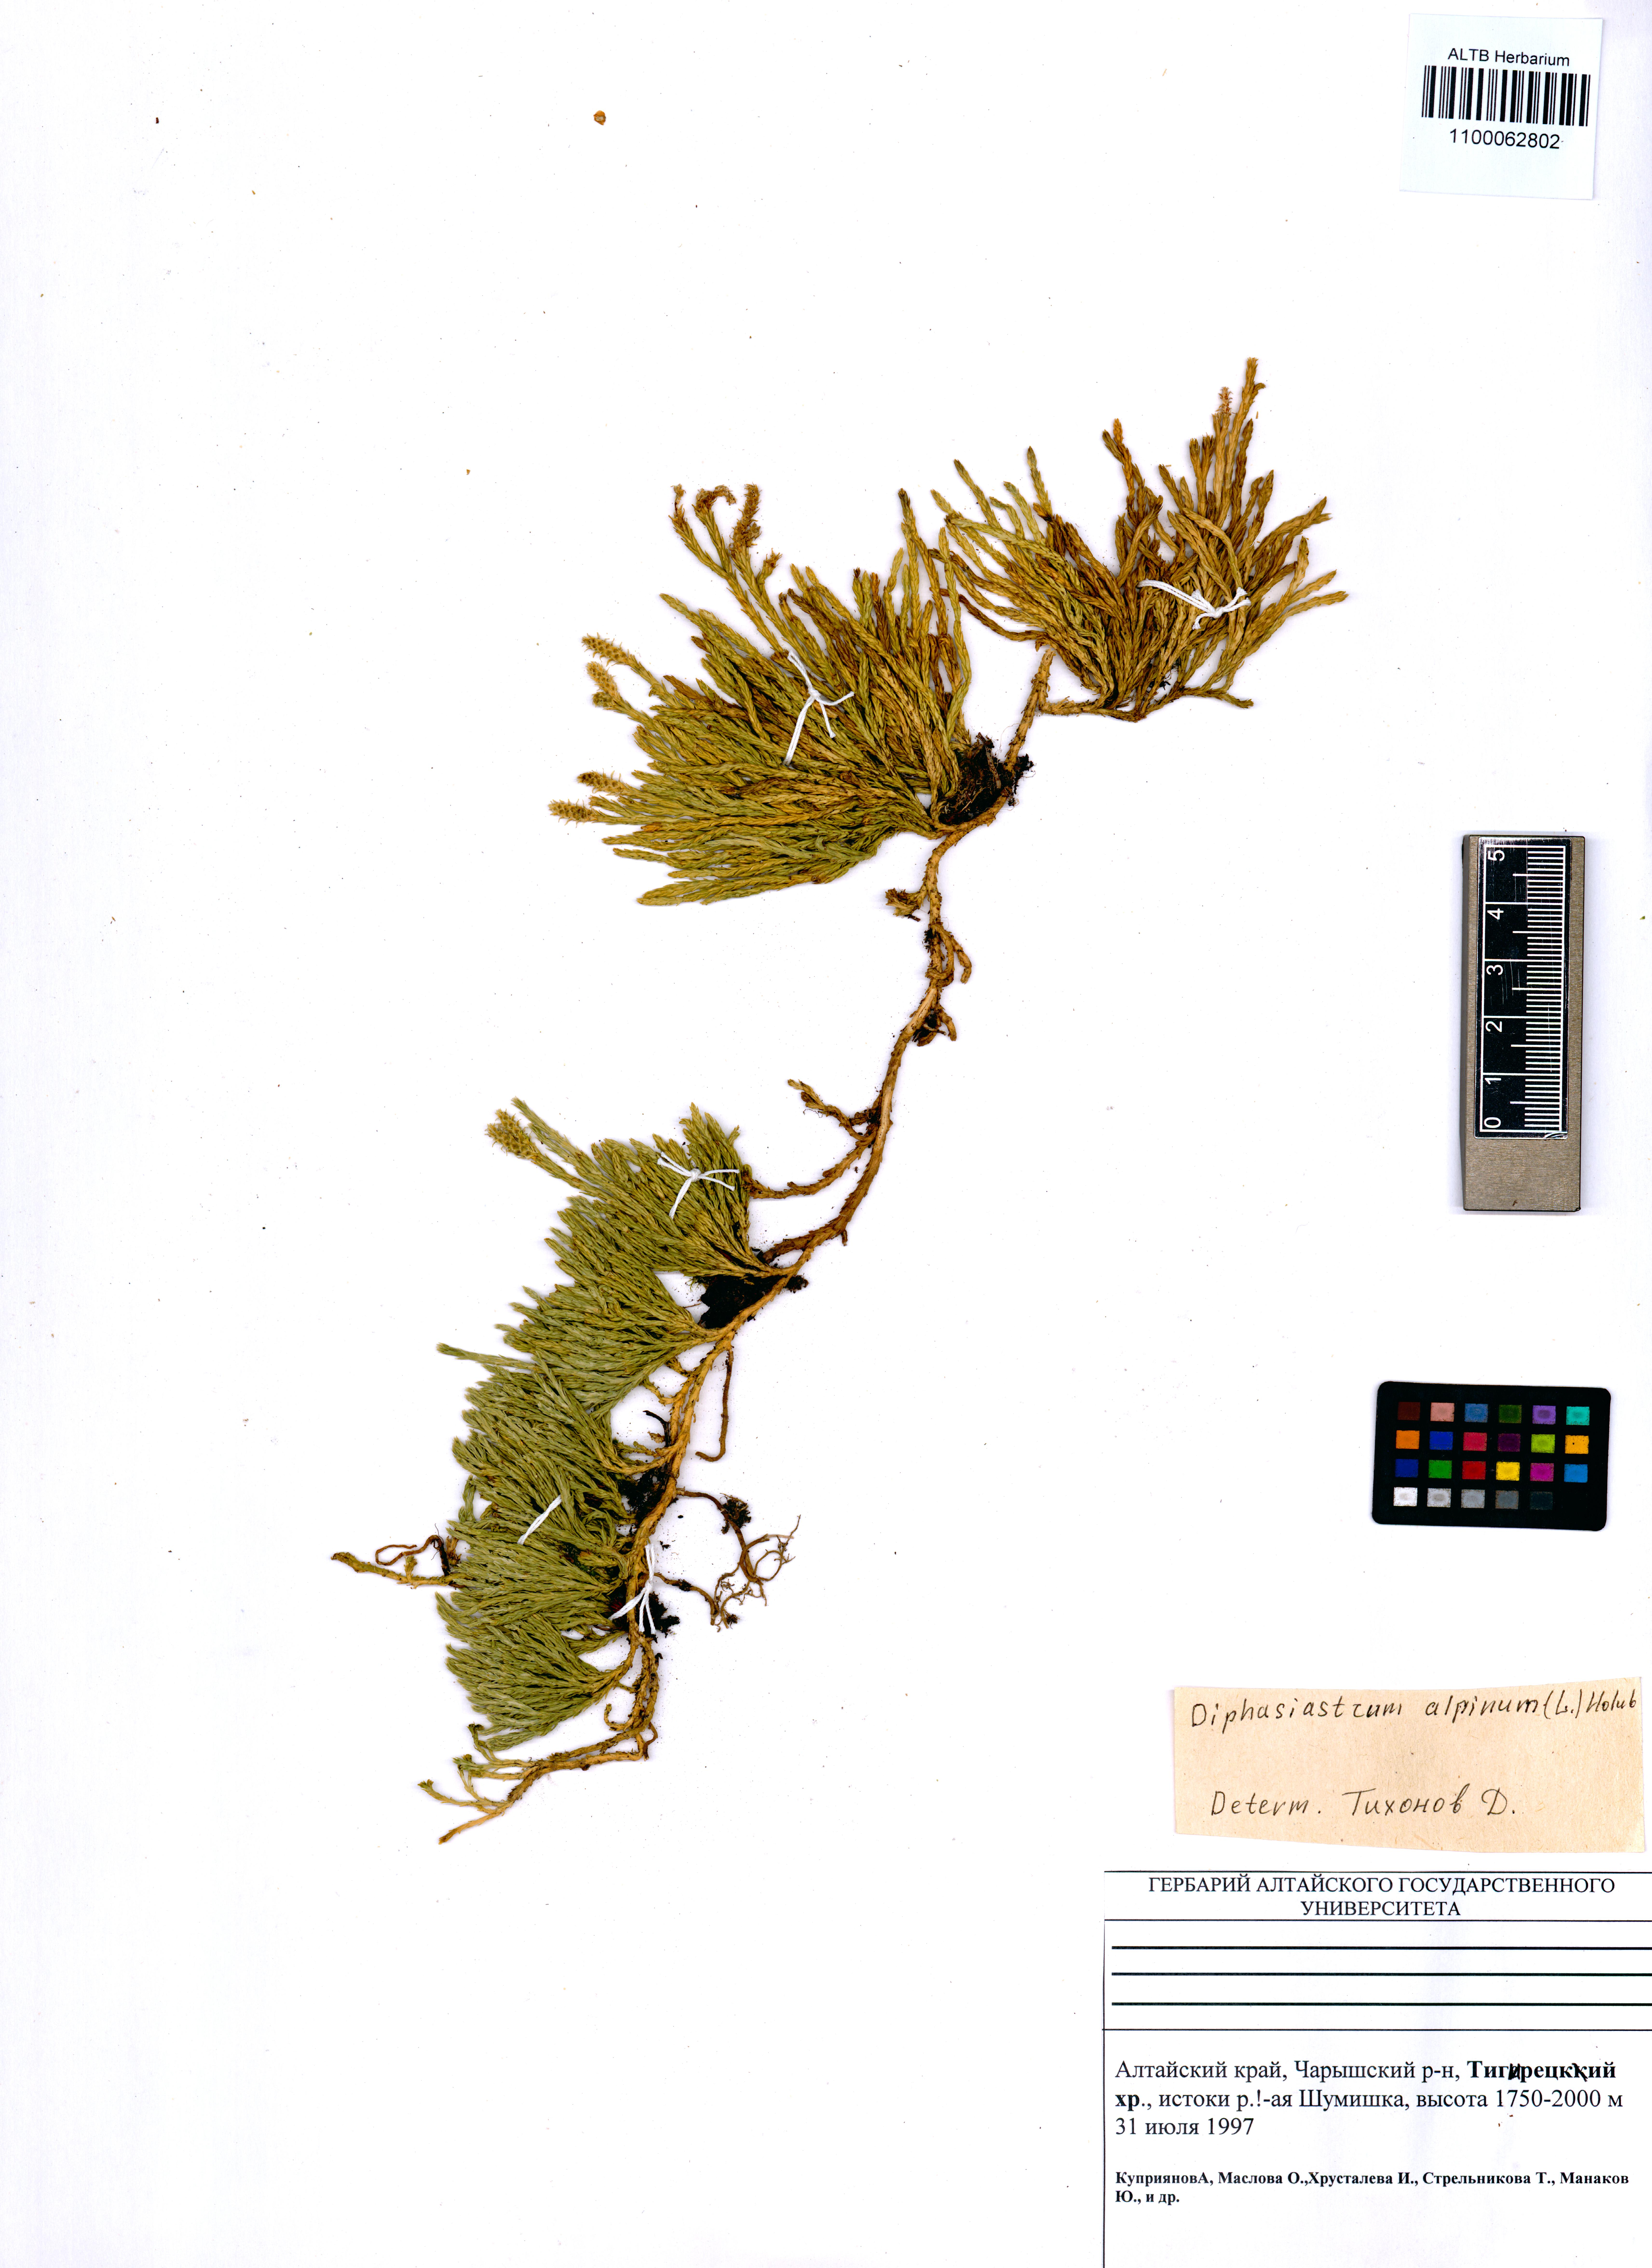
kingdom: Plantae
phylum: Tracheophyta
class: Lycopodiopsida
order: Lycopodiales
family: Lycopodiaceae
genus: Diphasiastrum
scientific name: Diphasiastrum alpinum
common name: Alpine clubmoss
